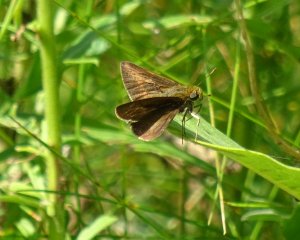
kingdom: Animalia
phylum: Arthropoda
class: Insecta
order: Lepidoptera
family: Hesperiidae
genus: Euphyes
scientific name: Euphyes vestris
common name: Dun Skipper
